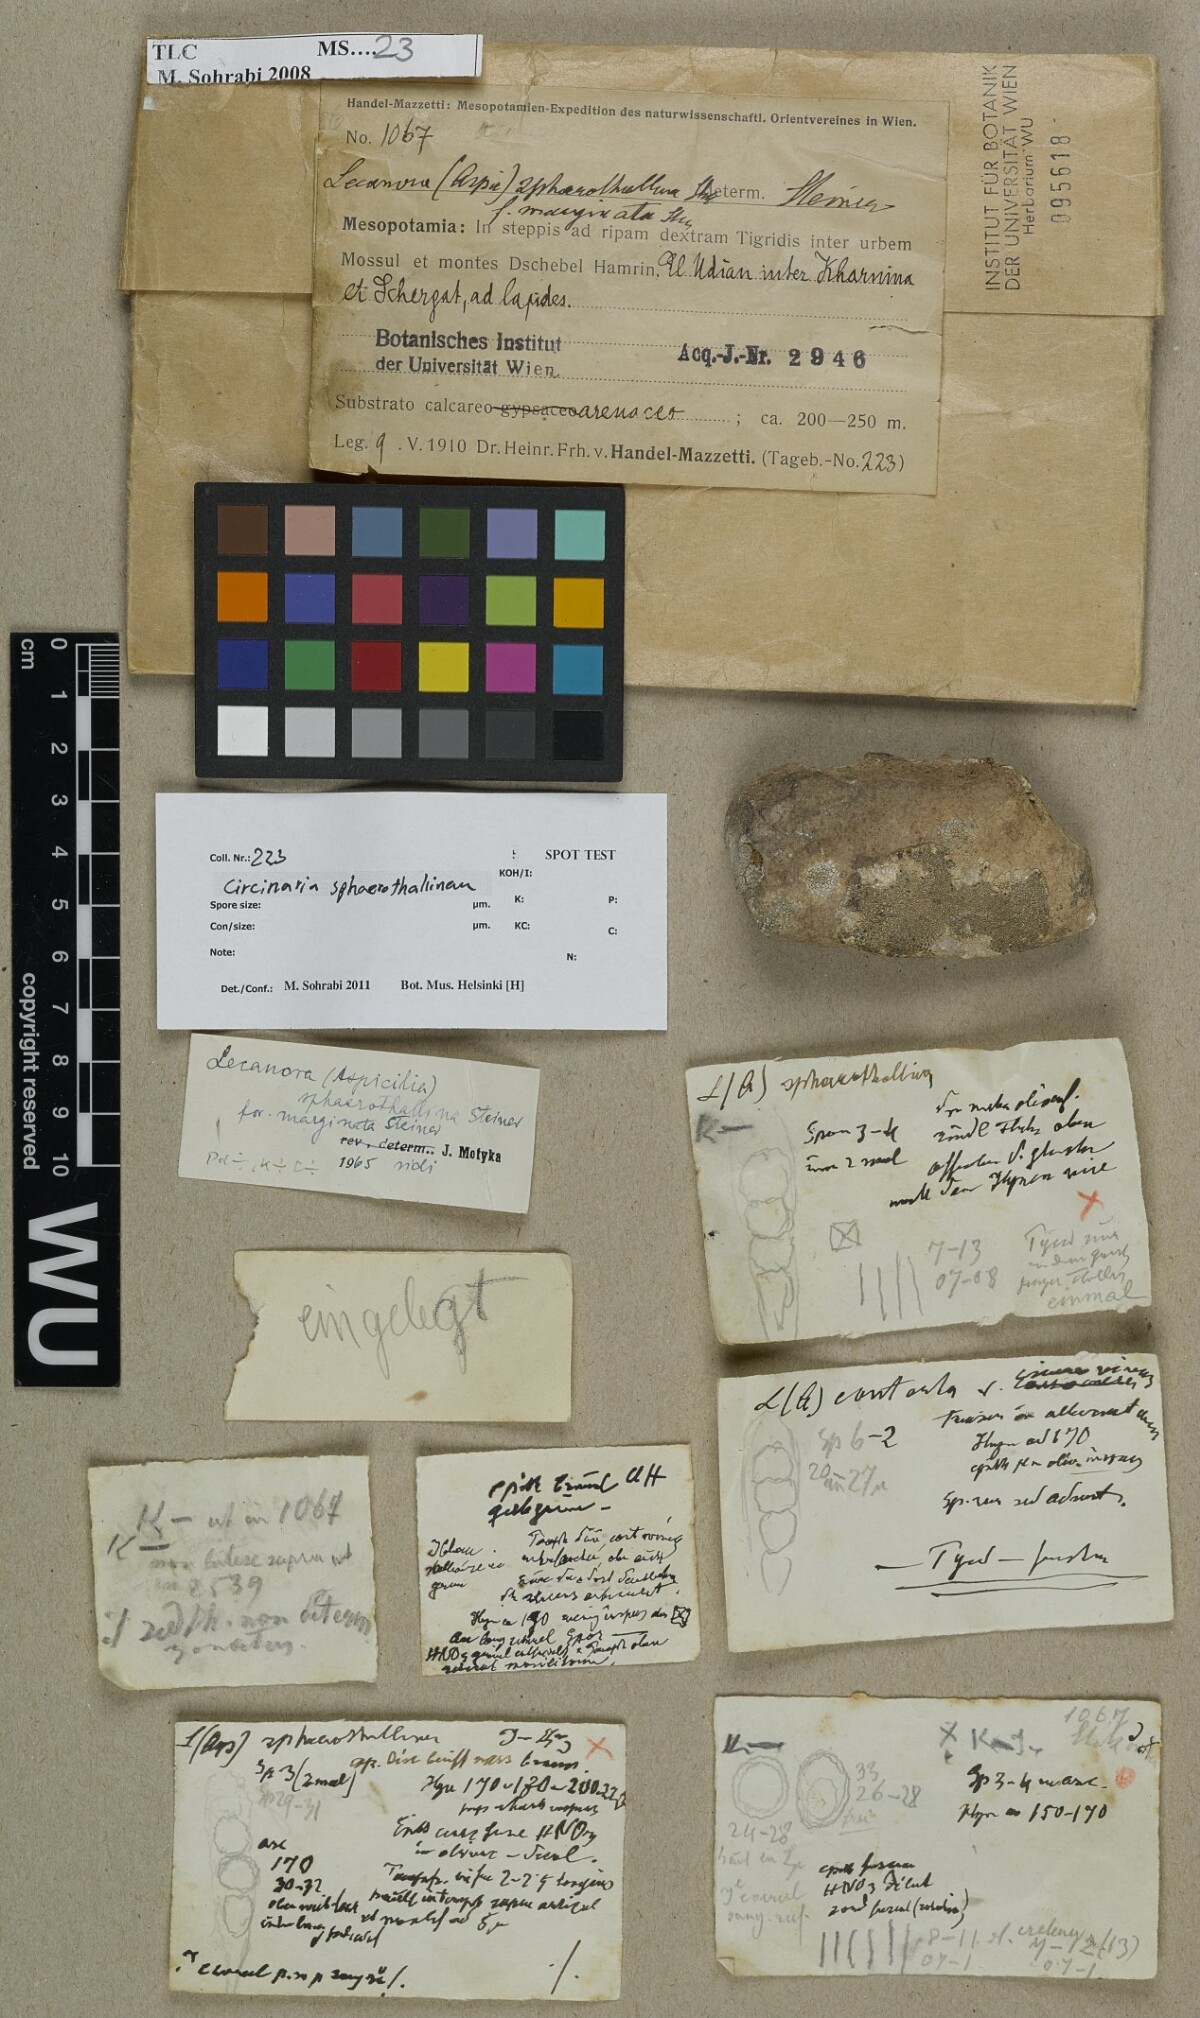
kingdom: Fungi
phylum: Ascomycota
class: Lecanoromycetes
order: Lecanorales
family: Lecanoraceae
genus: Chlorangium
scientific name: Chlorangium sphaerothallinum
